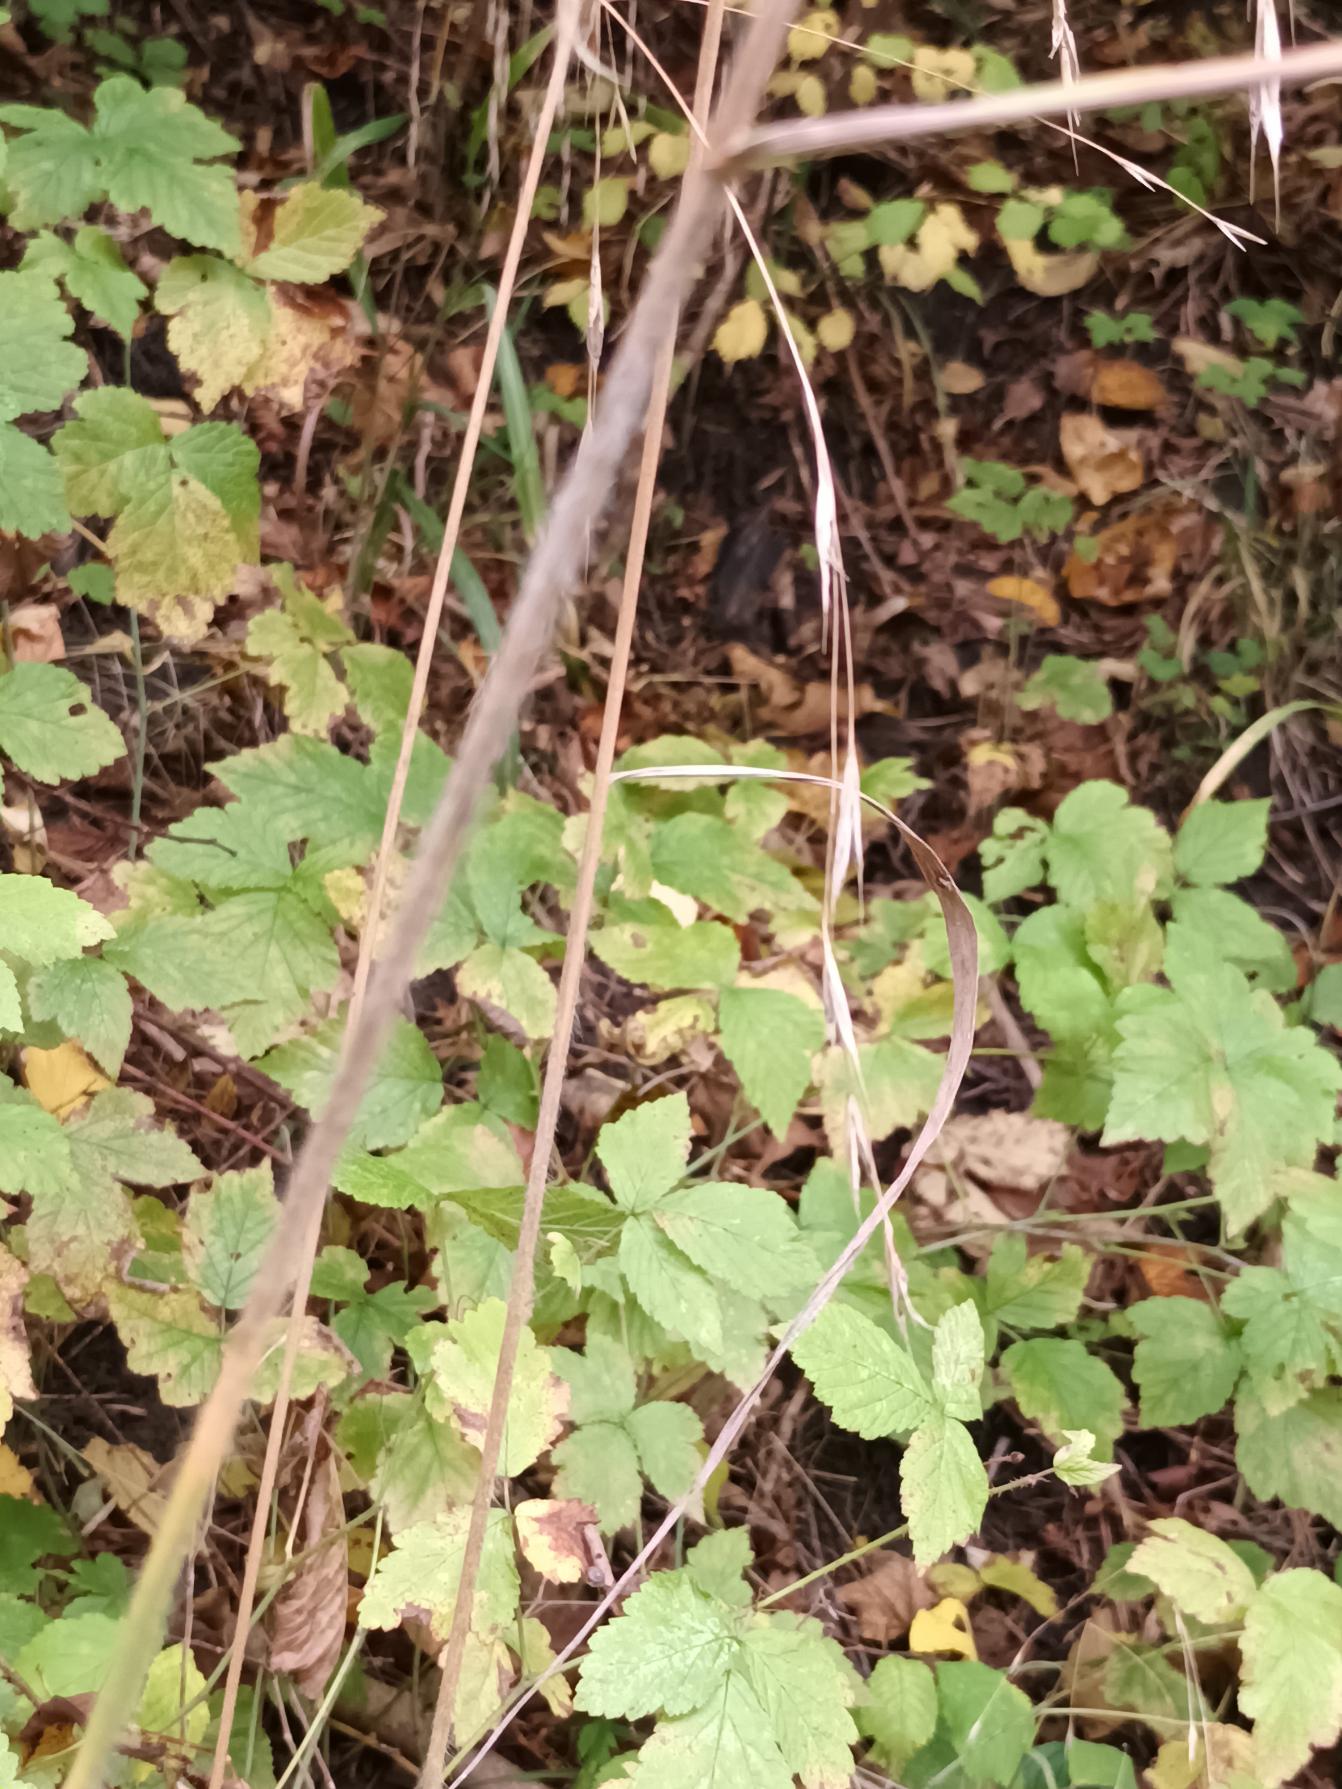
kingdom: Plantae
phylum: Tracheophyta
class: Liliopsida
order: Poales
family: Poaceae
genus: Bromus
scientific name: Bromus ramosus
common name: Sildig skov-hejre
